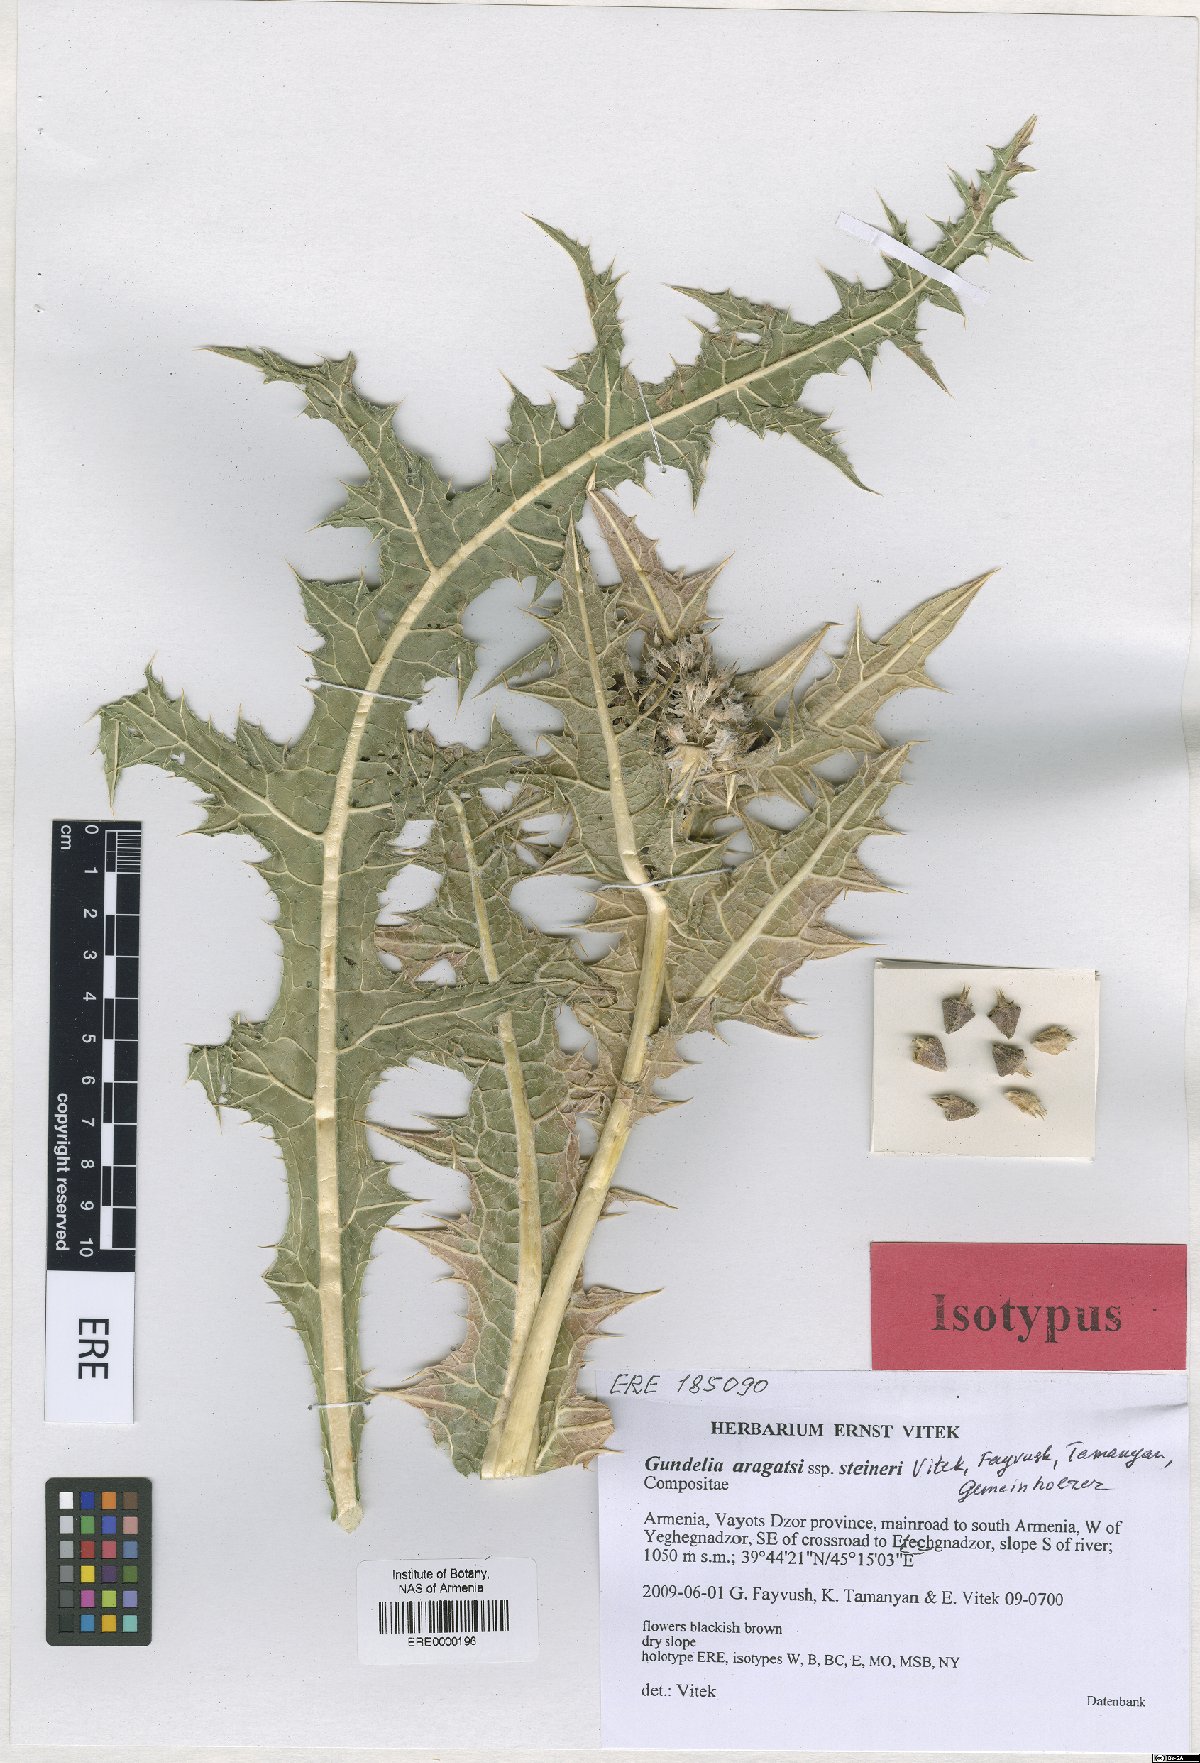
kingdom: Plantae
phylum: Tracheophyta
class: Magnoliopsida
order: Asterales
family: Asteraceae
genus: Gundelia
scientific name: Gundelia aragatsi
